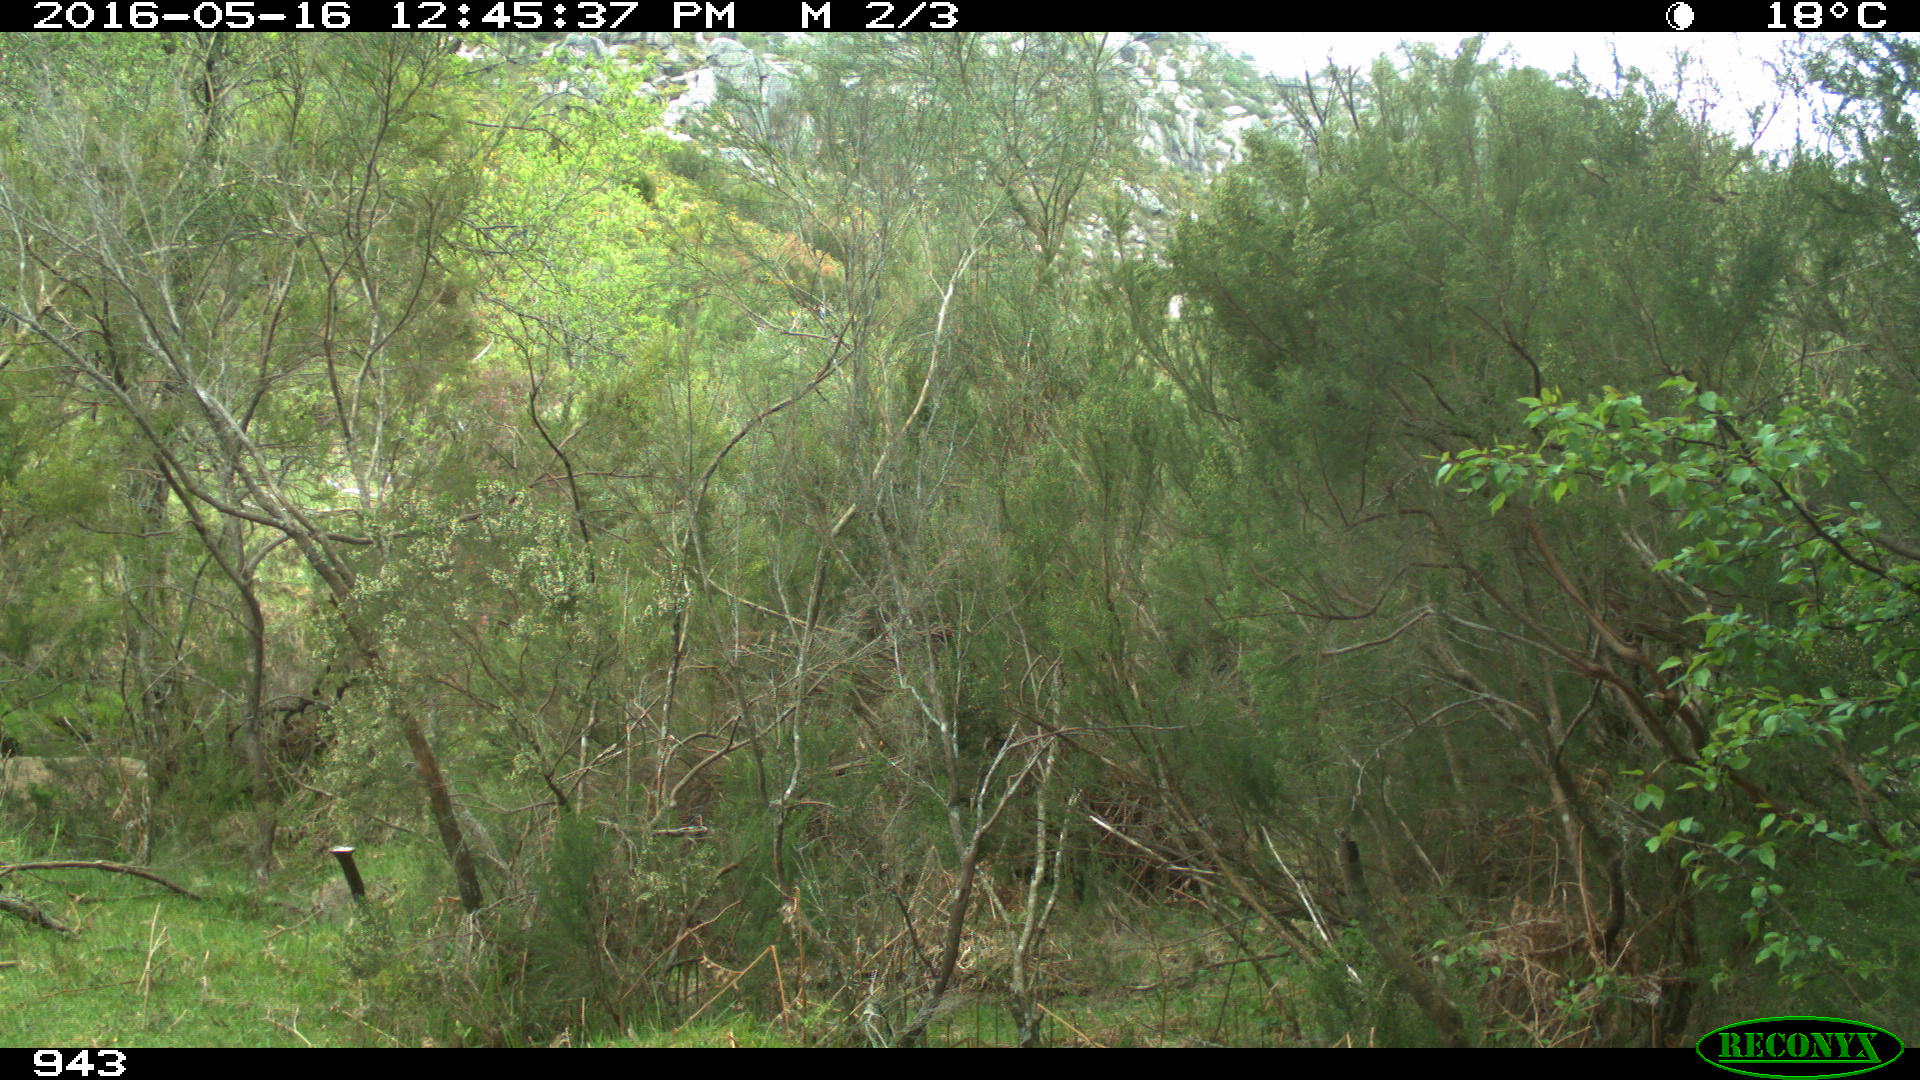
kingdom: Animalia
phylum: Chordata
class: Mammalia
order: Perissodactyla
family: Equidae
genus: Equus
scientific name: Equus caballus
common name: Horse
